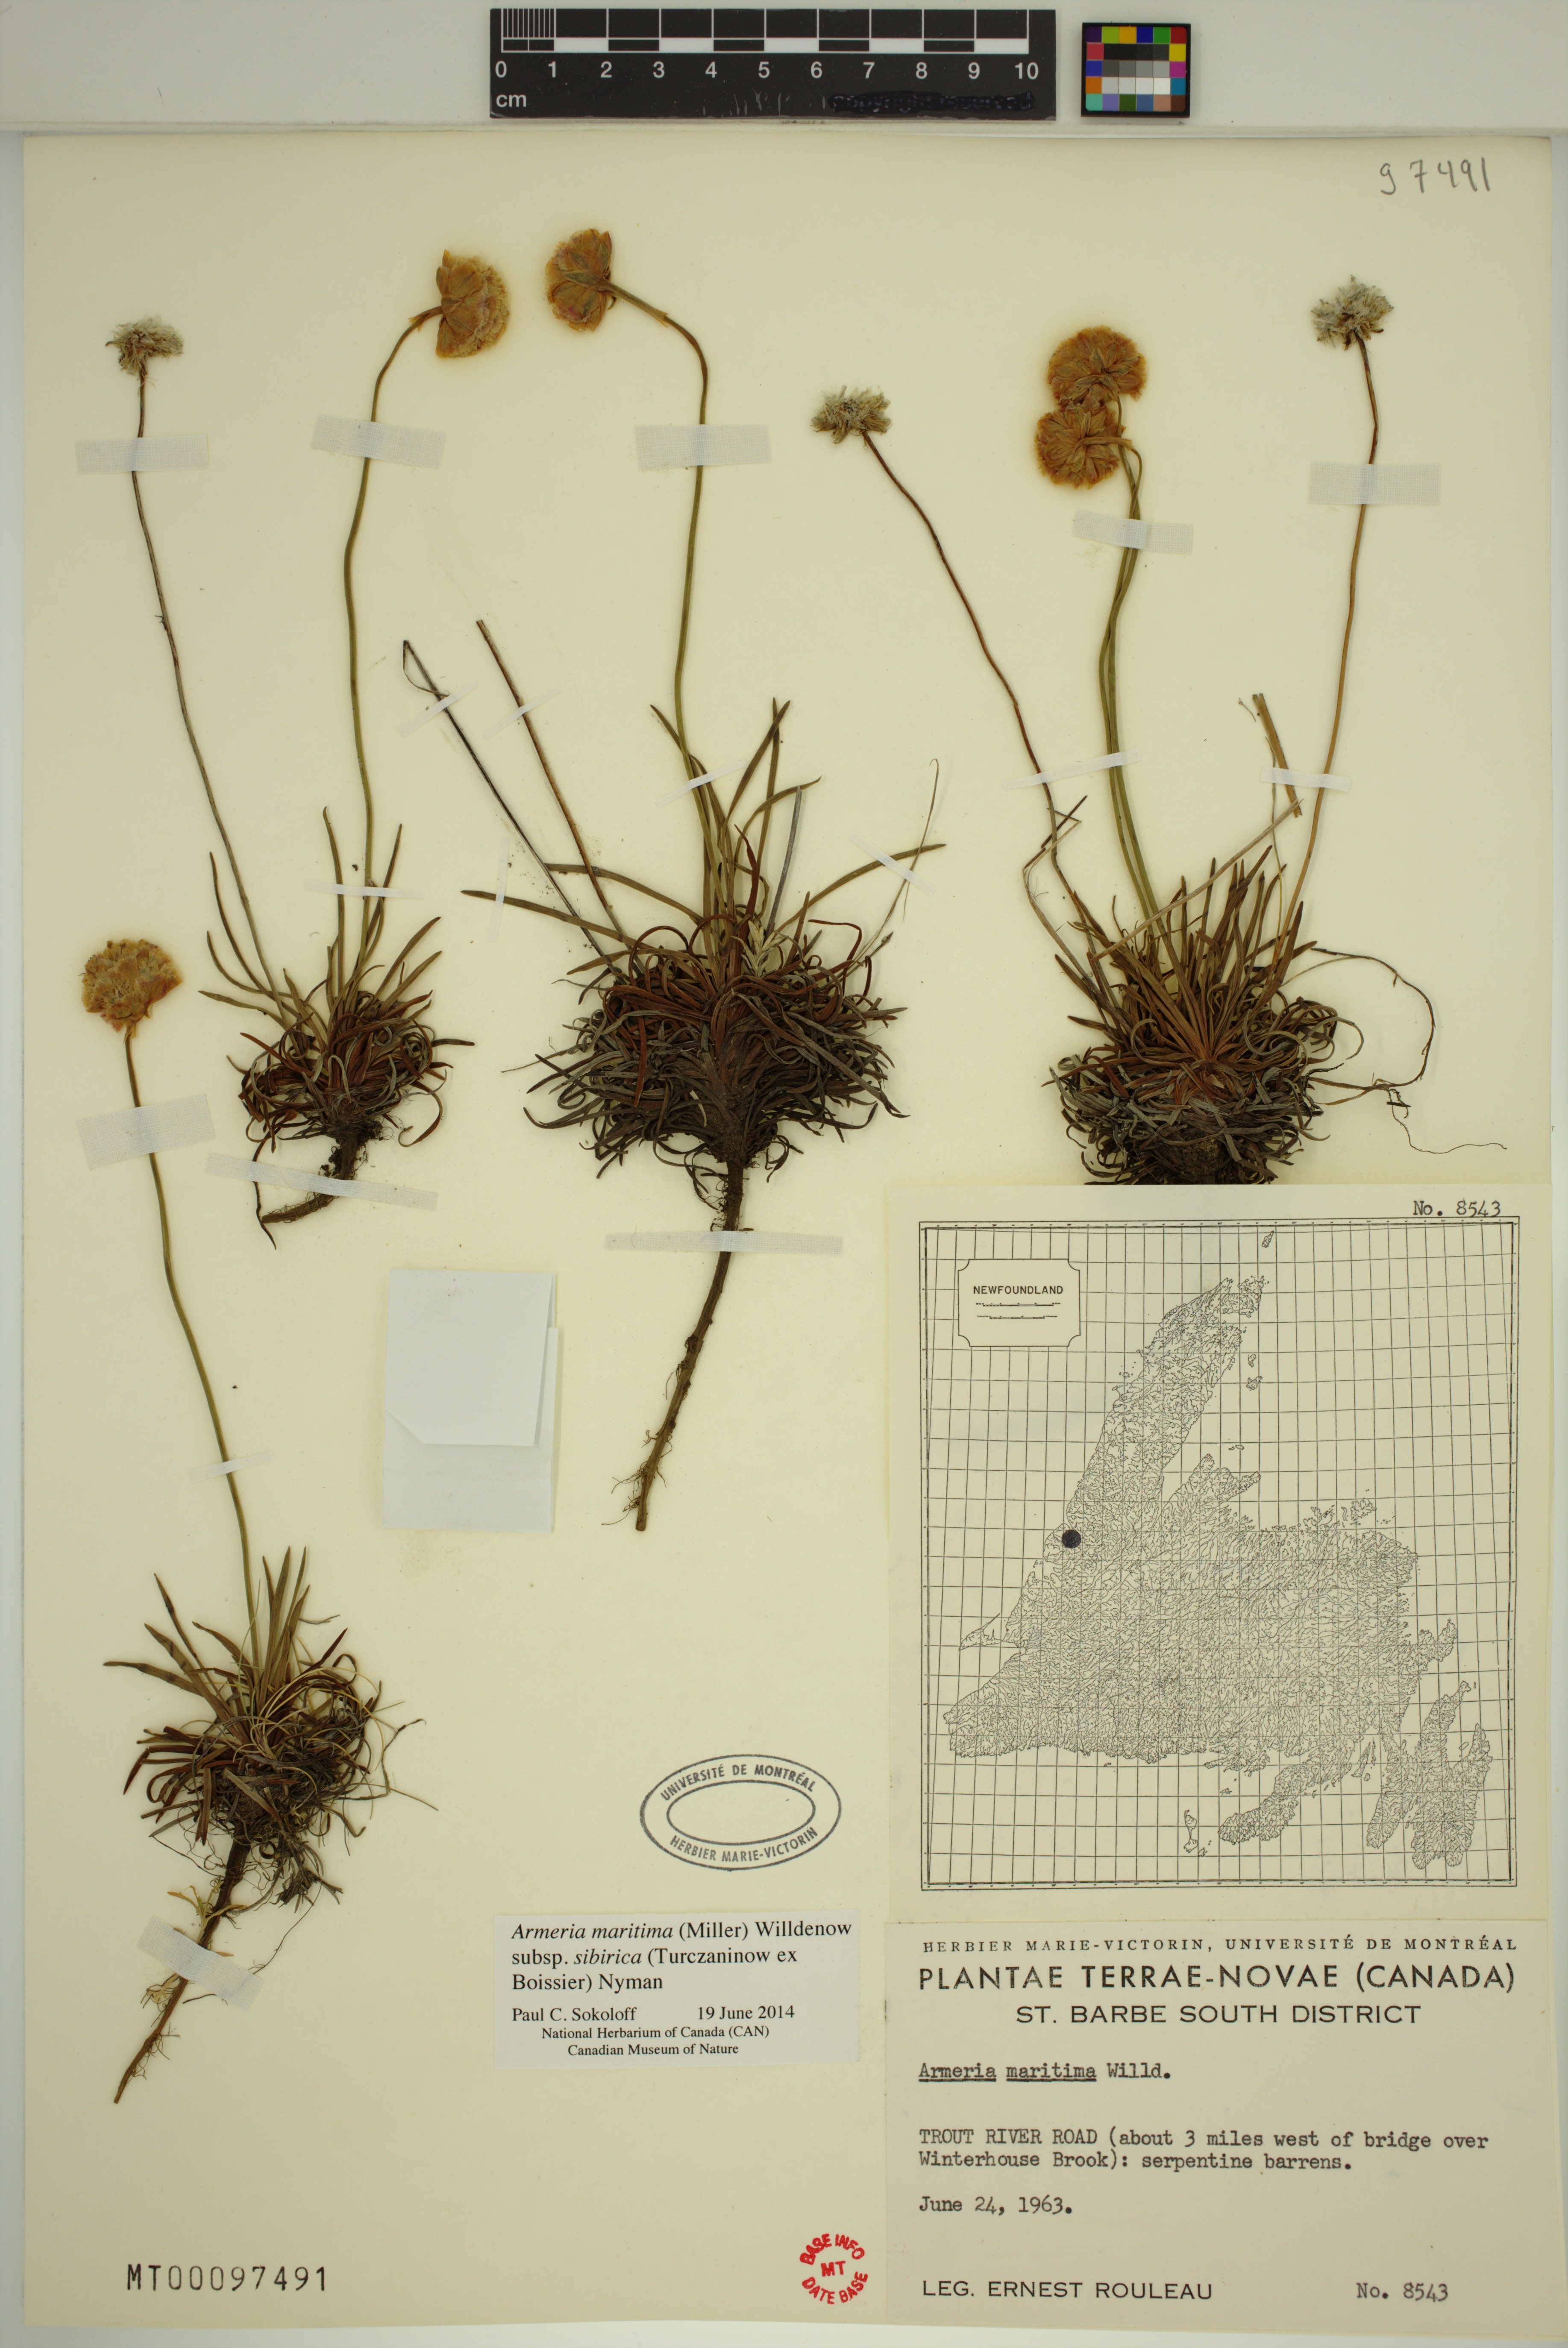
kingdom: Plantae
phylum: Tracheophyta
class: Magnoliopsida
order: Caryophyllales
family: Plumbaginaceae
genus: Armeria
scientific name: Armeria maritima
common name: Thrift
